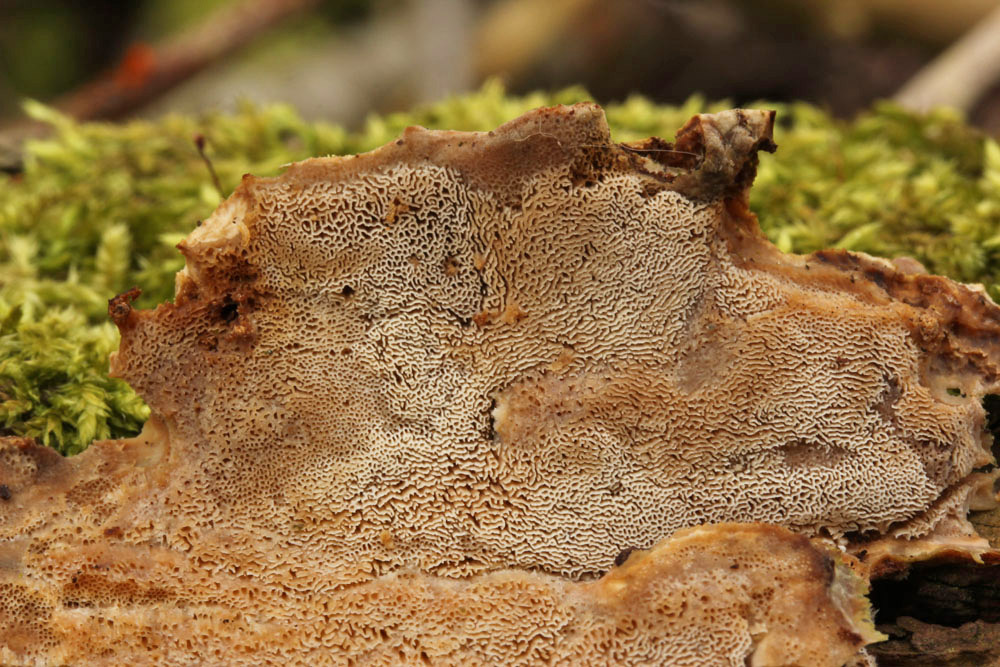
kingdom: Fungi
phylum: Basidiomycota
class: Agaricomycetes
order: Polyporales
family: Phanerochaetaceae
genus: Bjerkandera
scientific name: Bjerkandera fumosa
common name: grågul sodporesvamp
